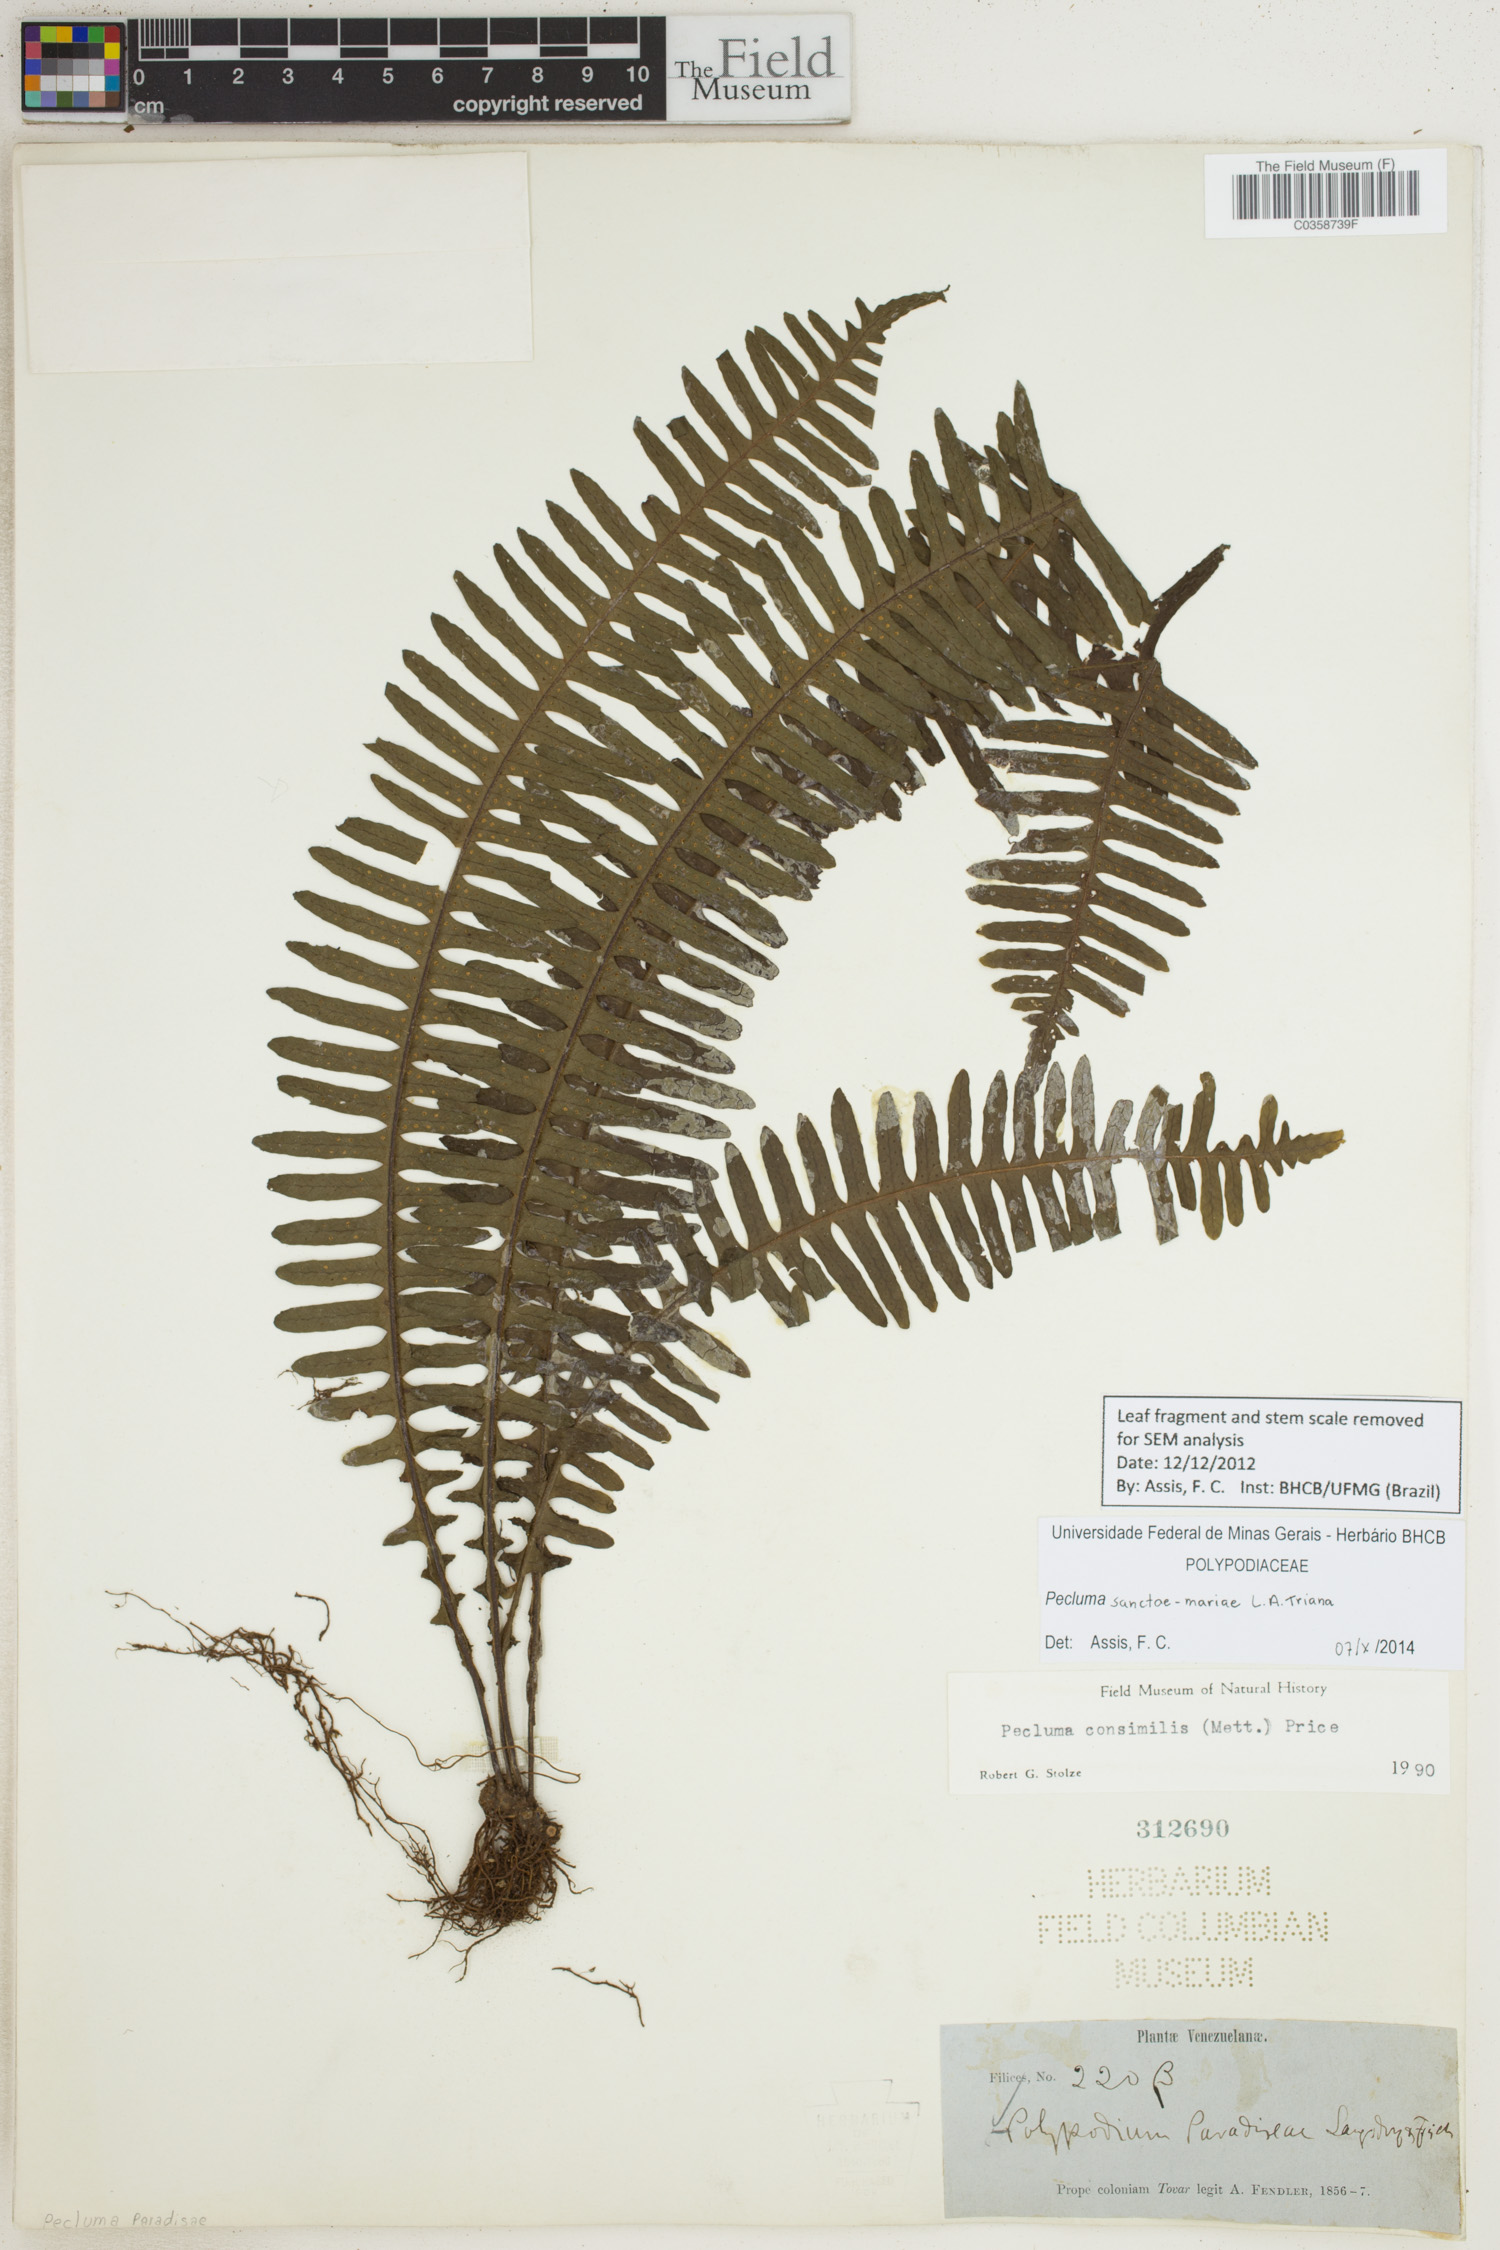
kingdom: Plantae
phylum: Tracheophyta
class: Polypodiopsida
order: Polypodiales
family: Polypodiaceae
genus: Pecluma
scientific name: Pecluma sanctae-mariae
